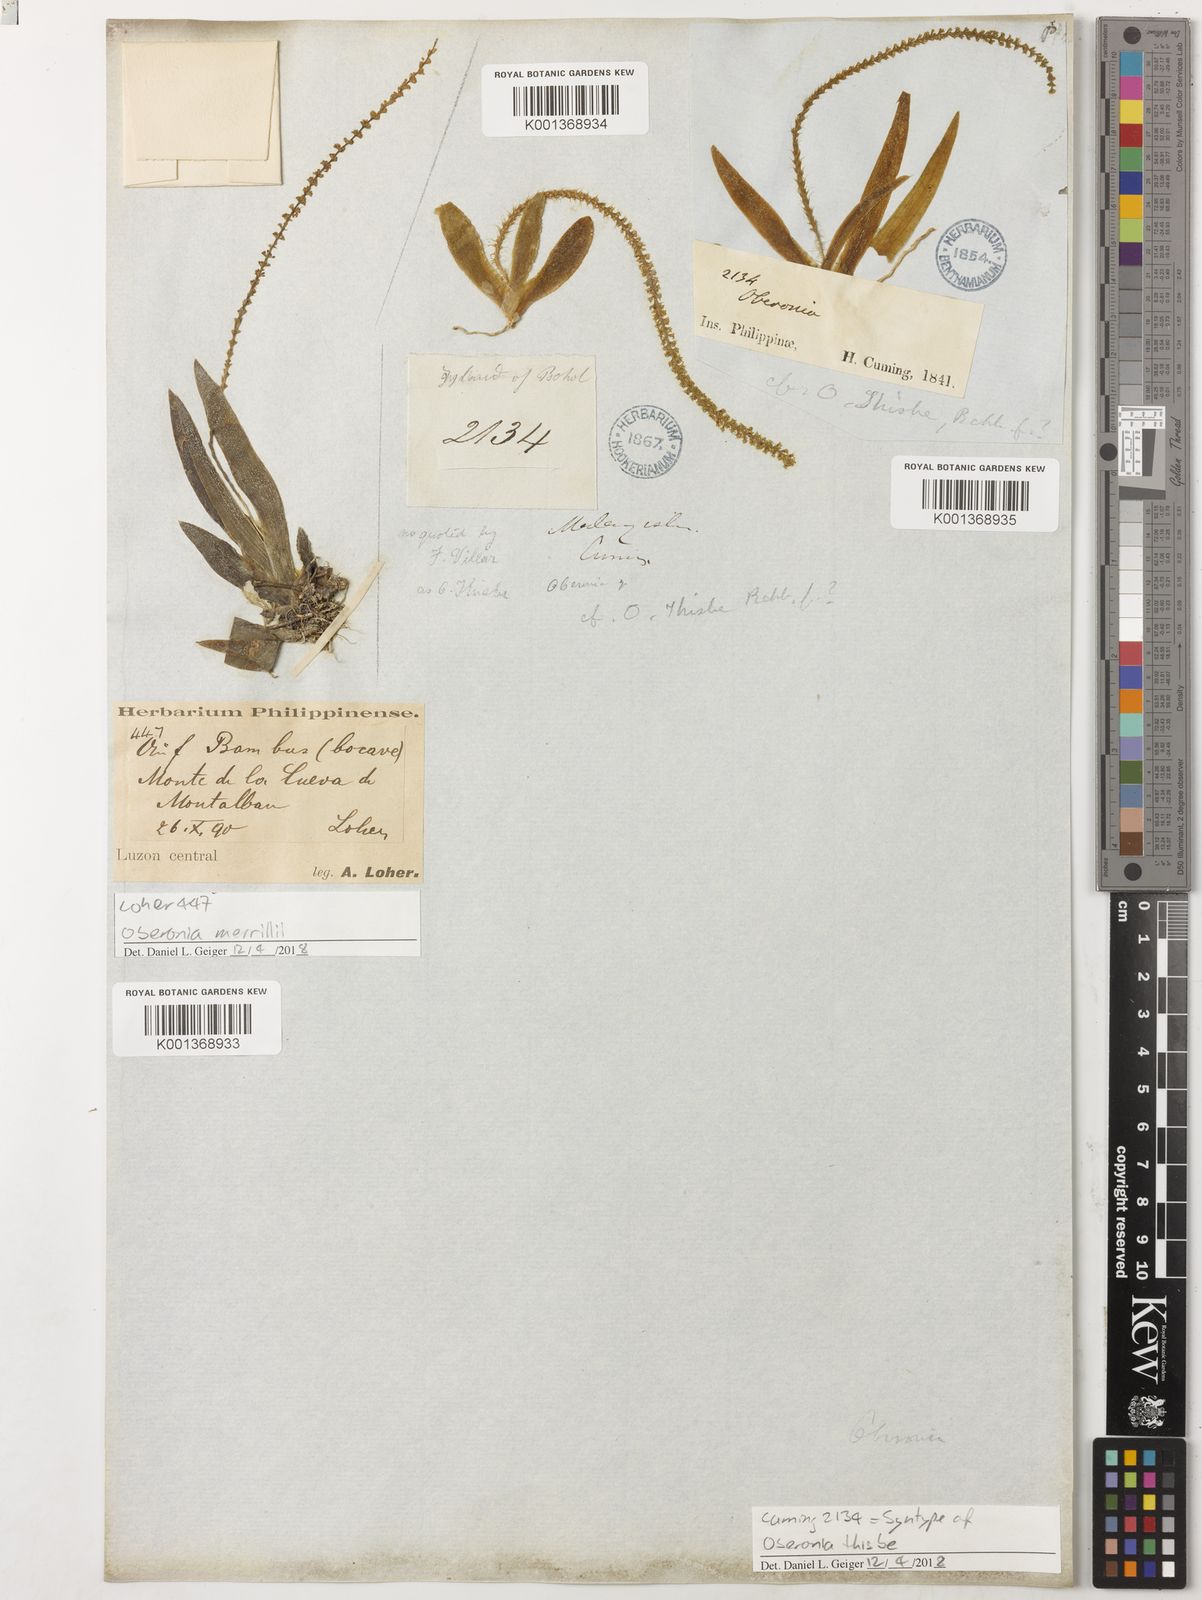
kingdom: Plantae
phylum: Tracheophyta
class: Liliopsida
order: Asparagales
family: Orchidaceae
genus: Oberonia
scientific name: Oberonia rufilabris
